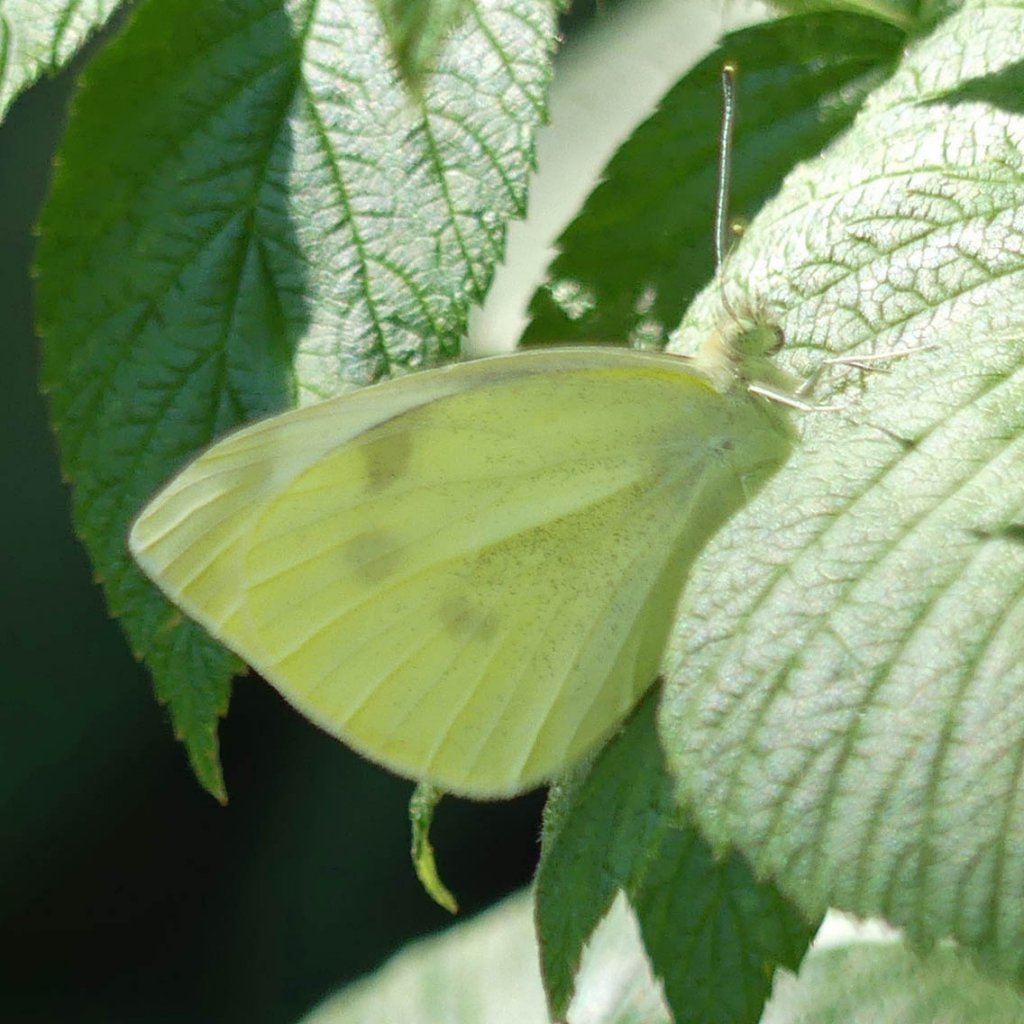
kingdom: Animalia
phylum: Arthropoda
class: Insecta
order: Lepidoptera
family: Pieridae
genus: Pieris
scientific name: Pieris rapae
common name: Cabbage White
